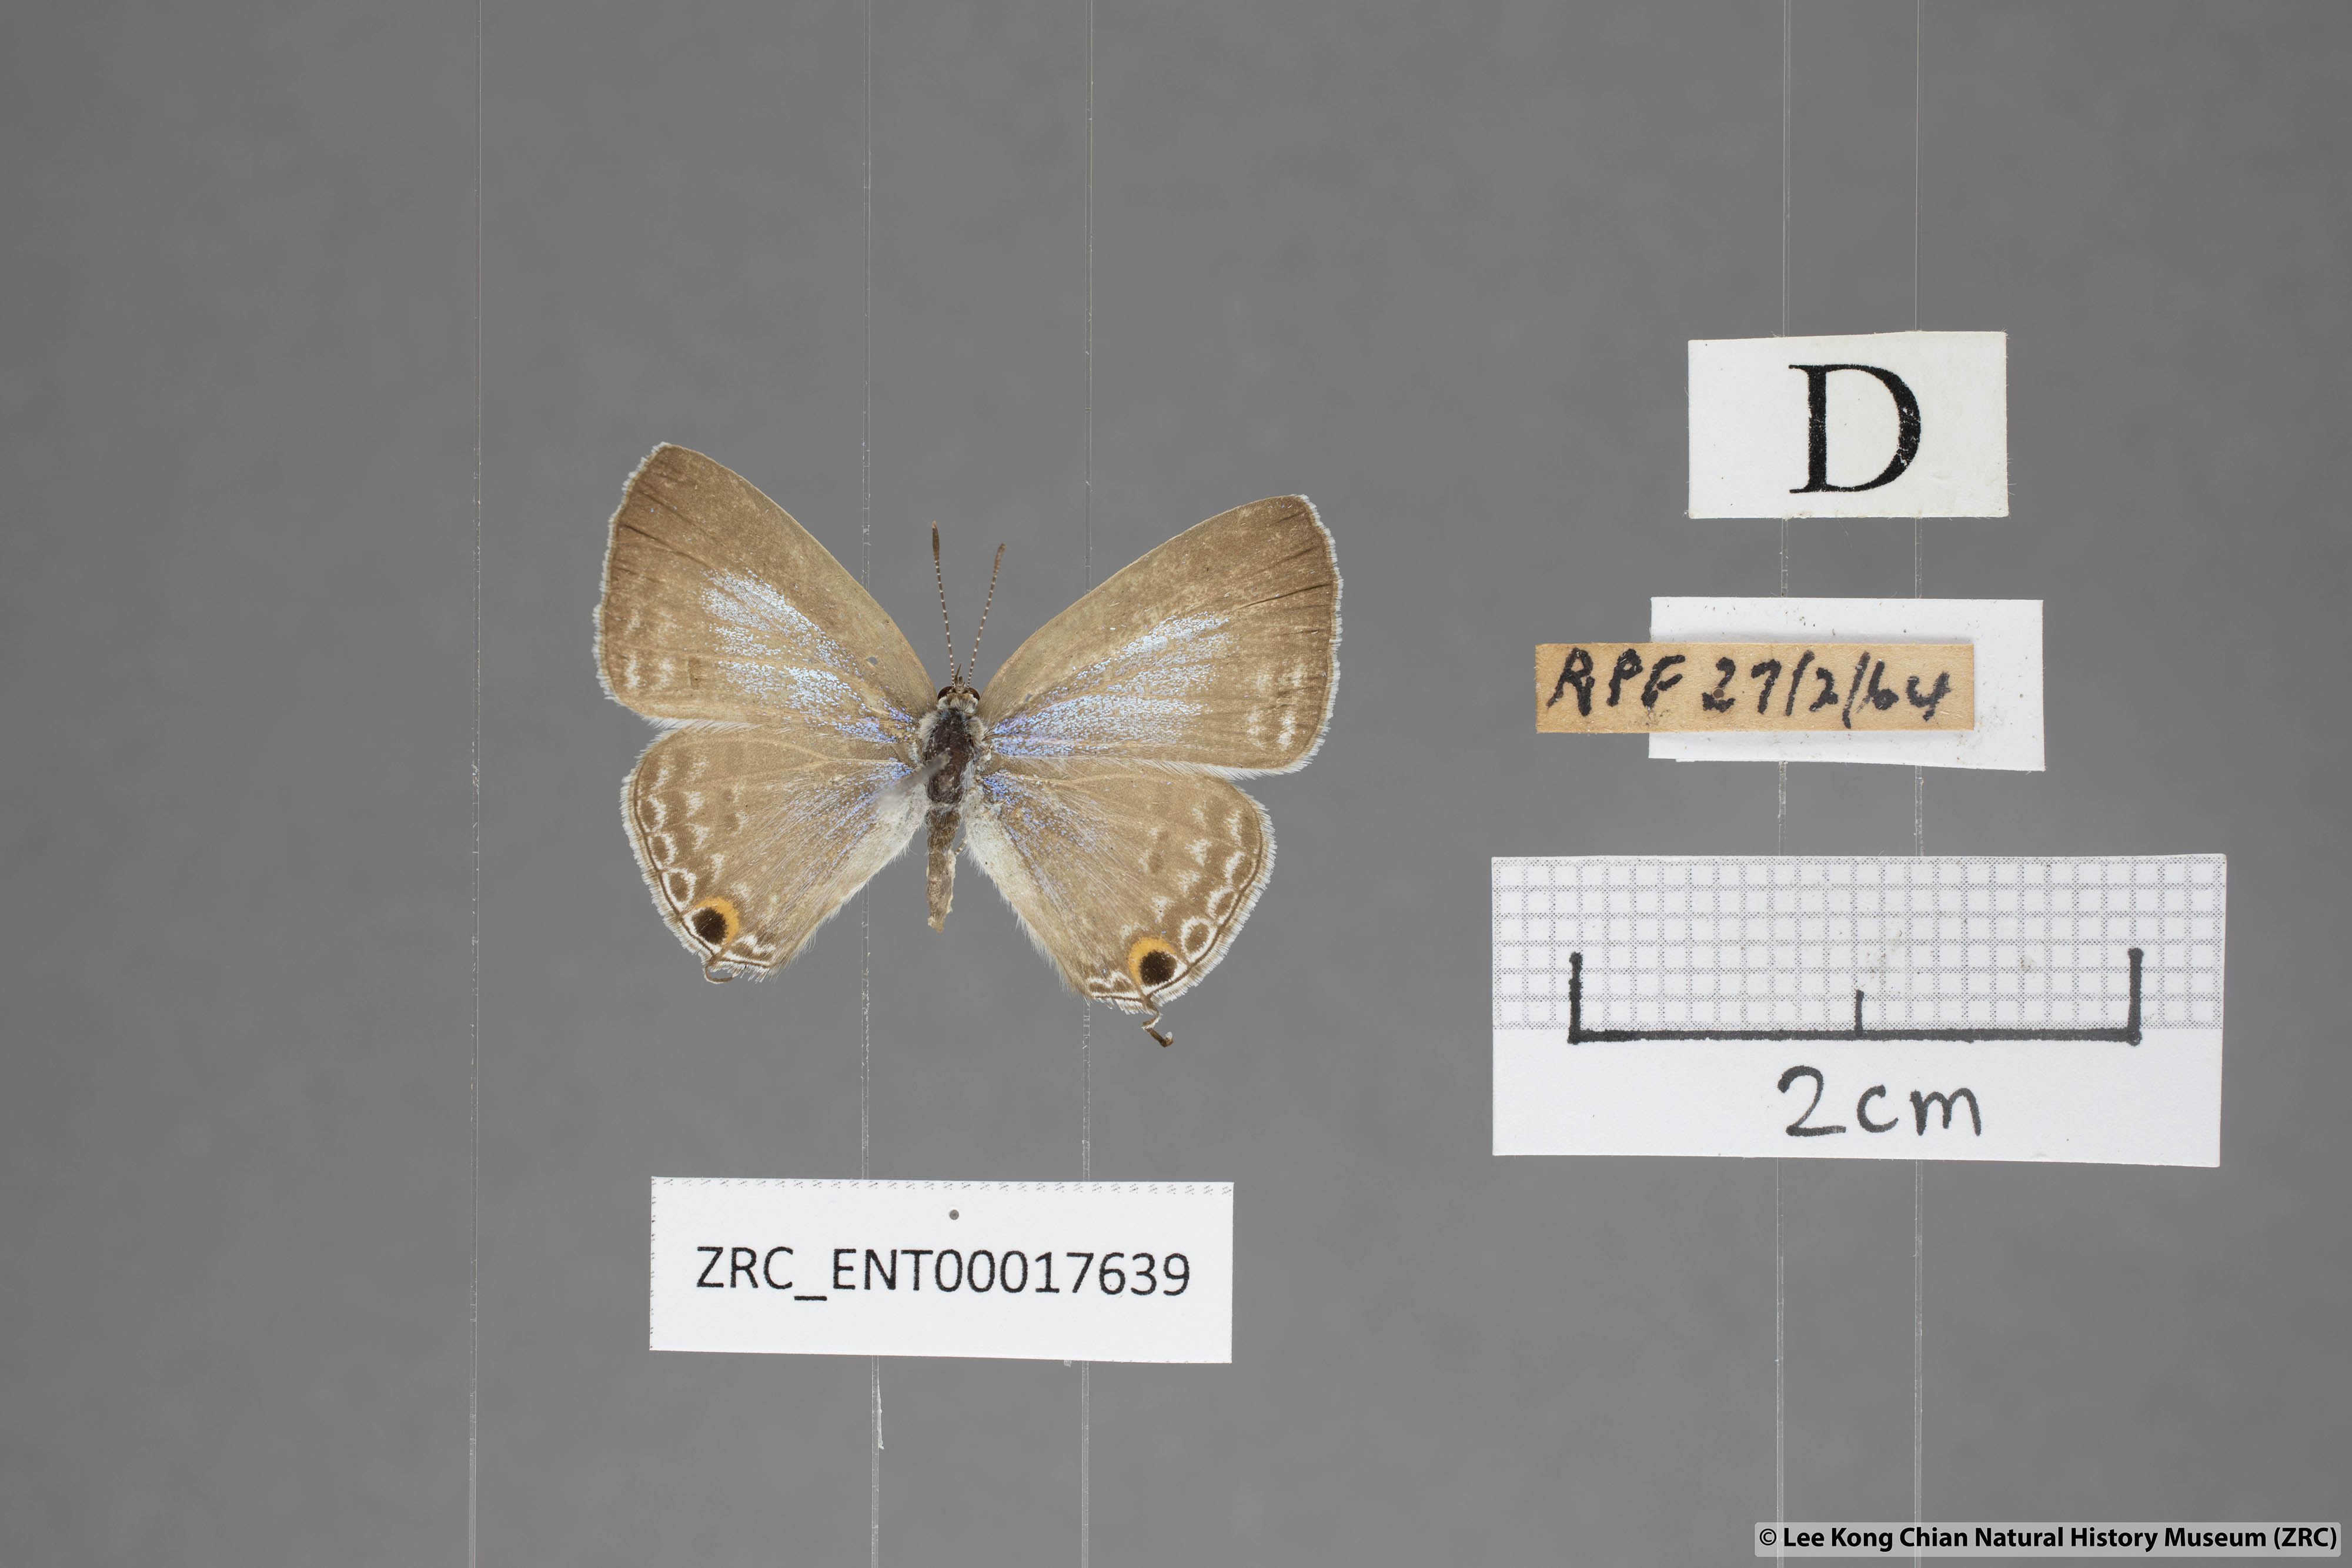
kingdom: Animalia
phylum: Arthropoda
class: Insecta
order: Lepidoptera
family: Lycaenidae
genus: Catochrysops
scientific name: Catochrysops strabo
